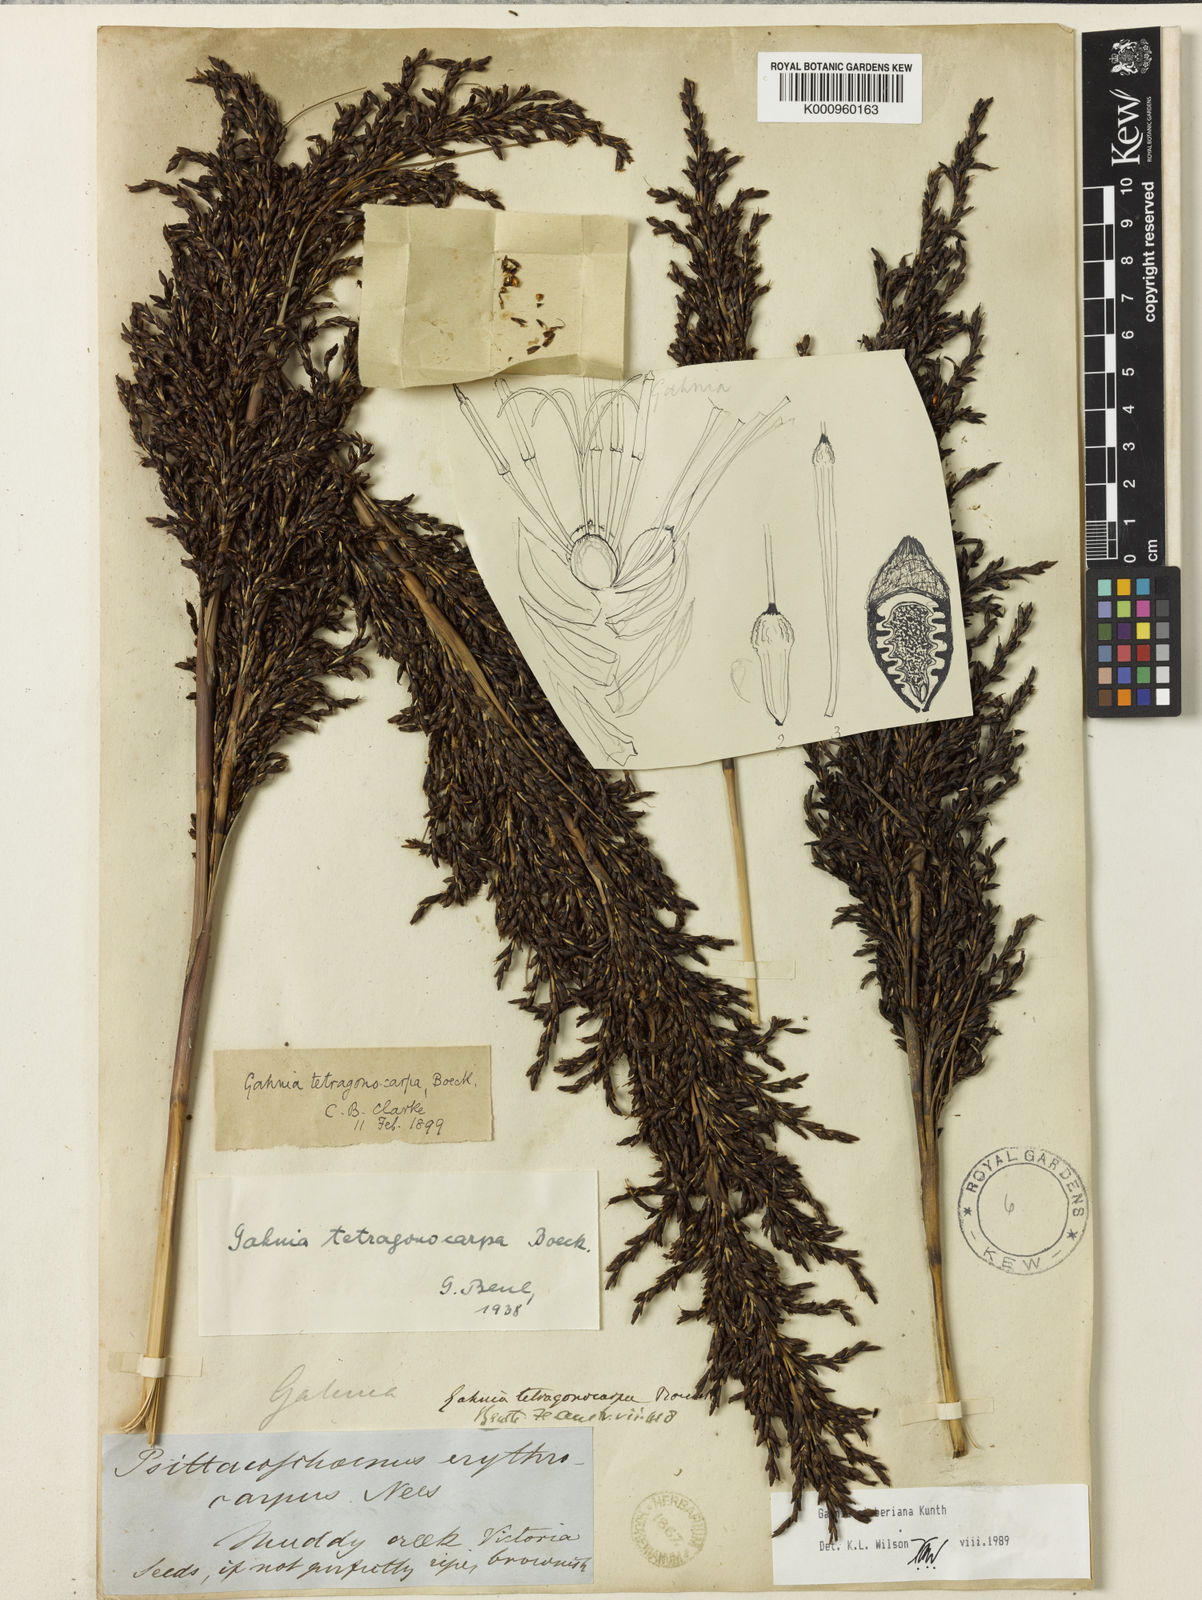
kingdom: Plantae
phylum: Tracheophyta
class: Liliopsida
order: Poales
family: Cyperaceae
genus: Gahnia
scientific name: Gahnia sieberiana
